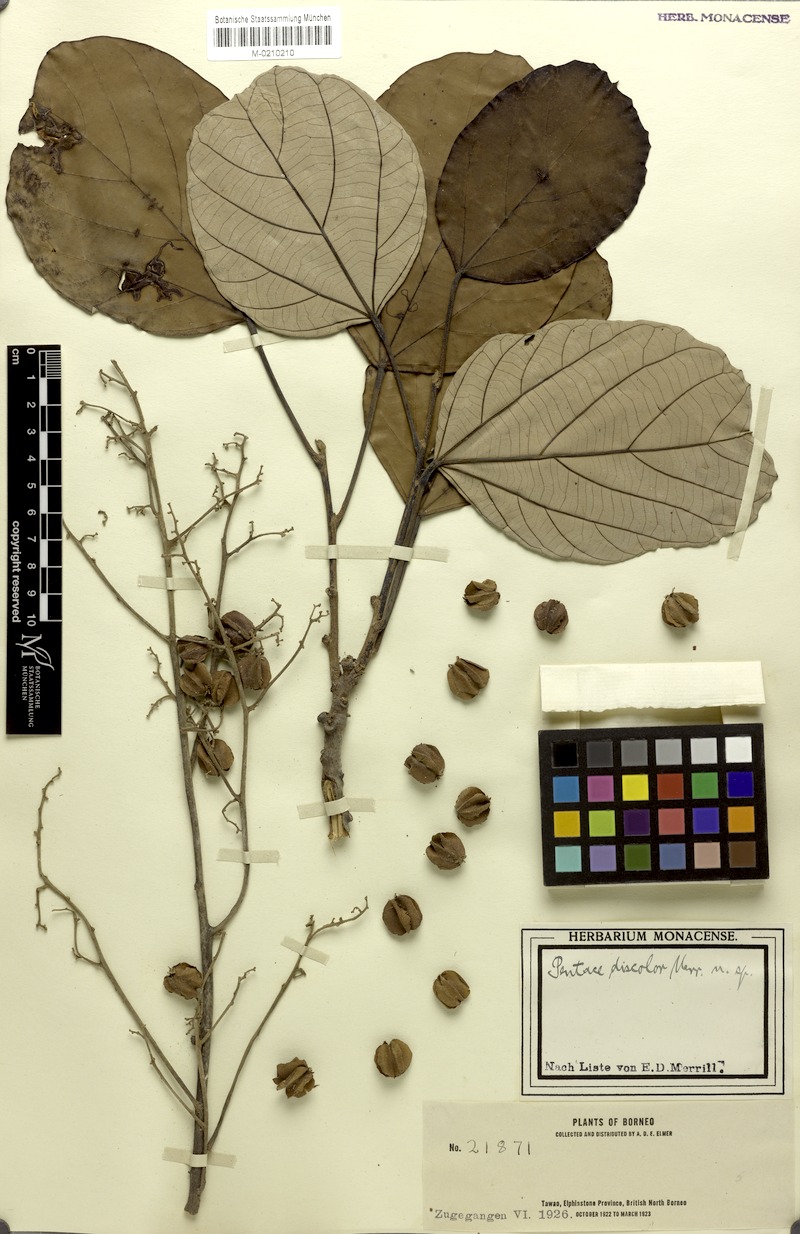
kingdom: Plantae
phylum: Tracheophyta
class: Magnoliopsida
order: Malvales
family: Malvaceae
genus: Pentace
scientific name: Pentace discolor
